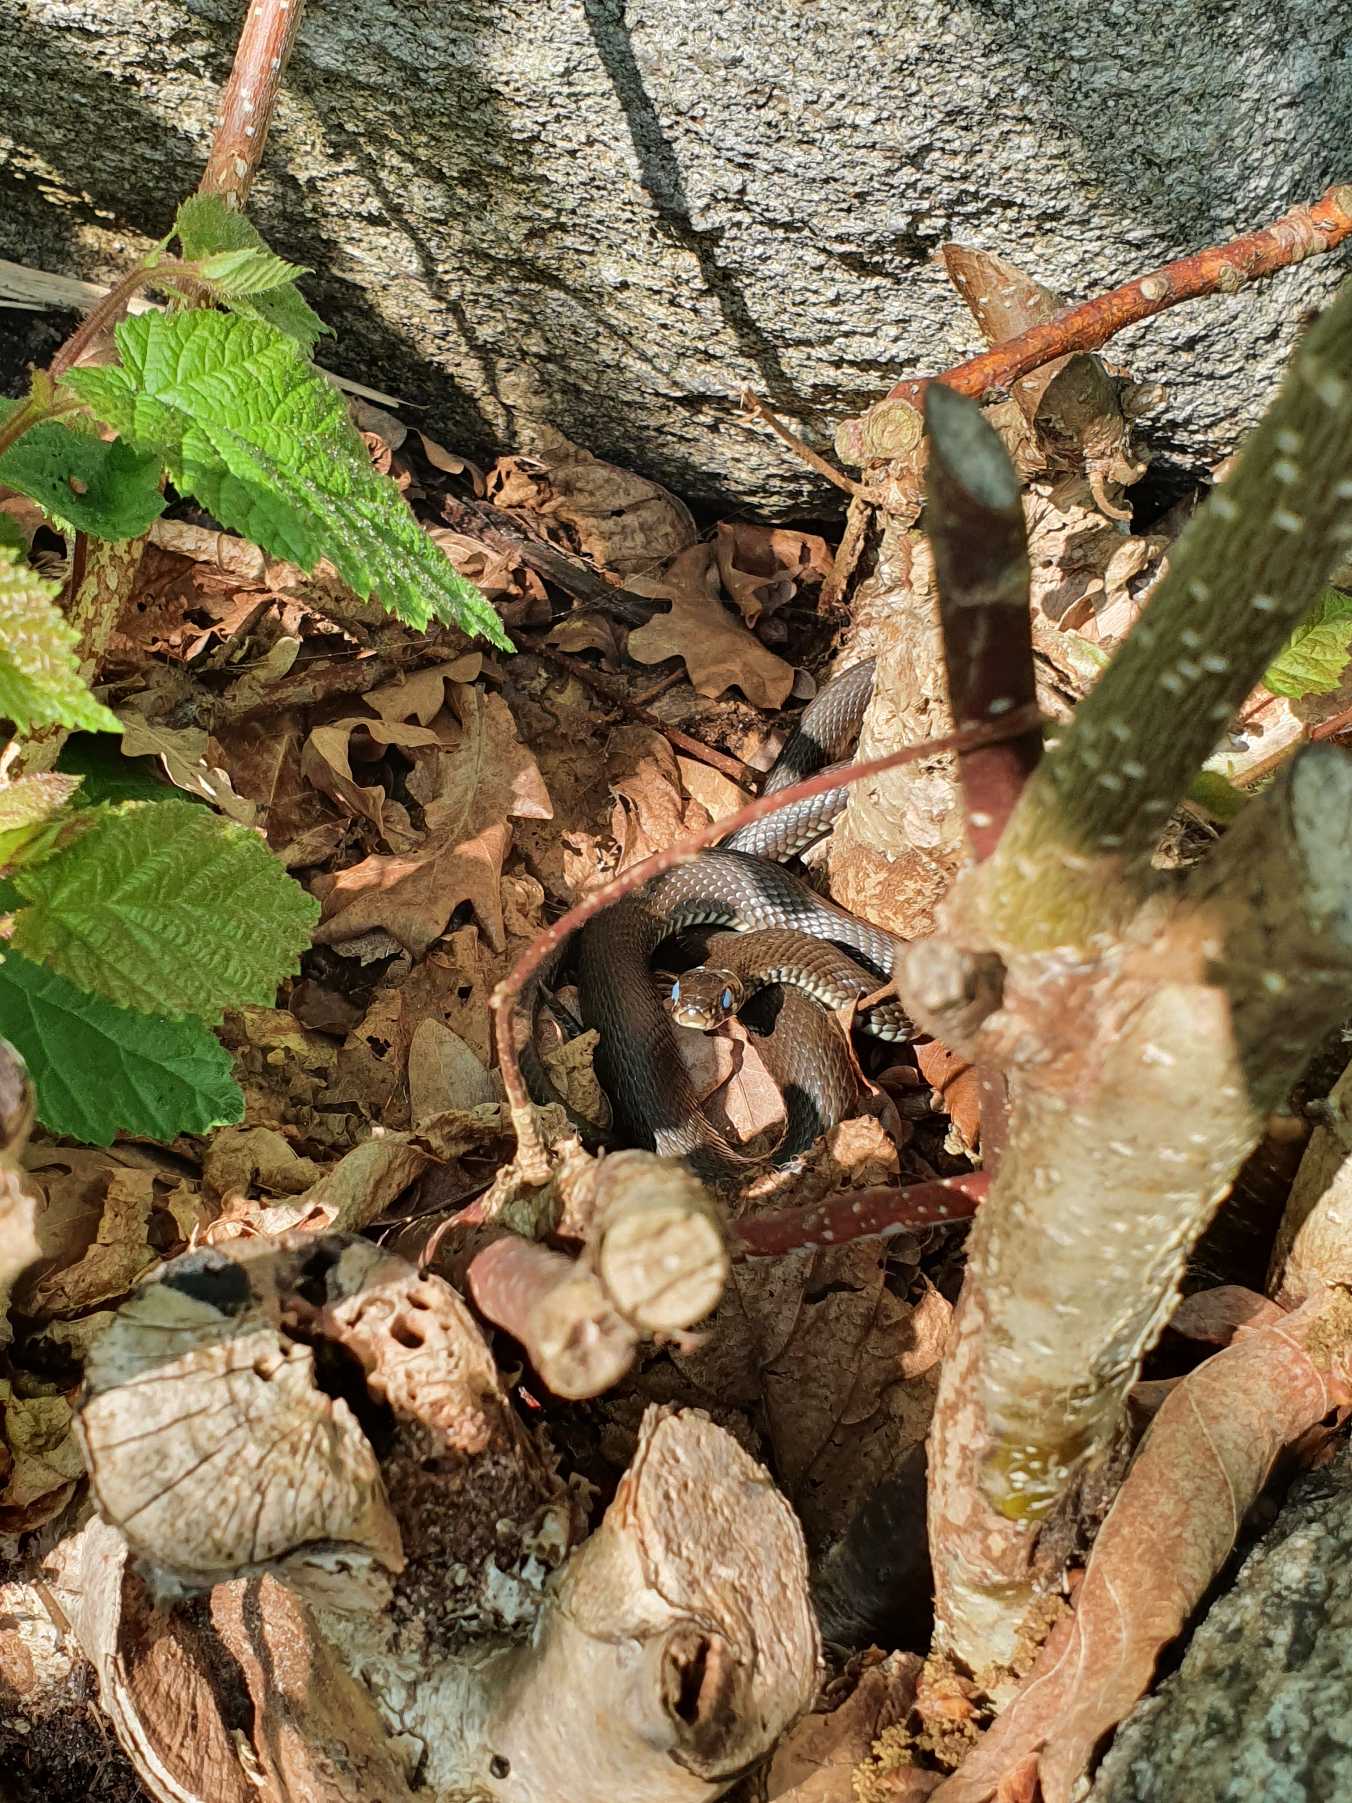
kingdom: Animalia
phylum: Chordata
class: Squamata
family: Colubridae
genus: Natrix
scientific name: Natrix natrix
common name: Snog
